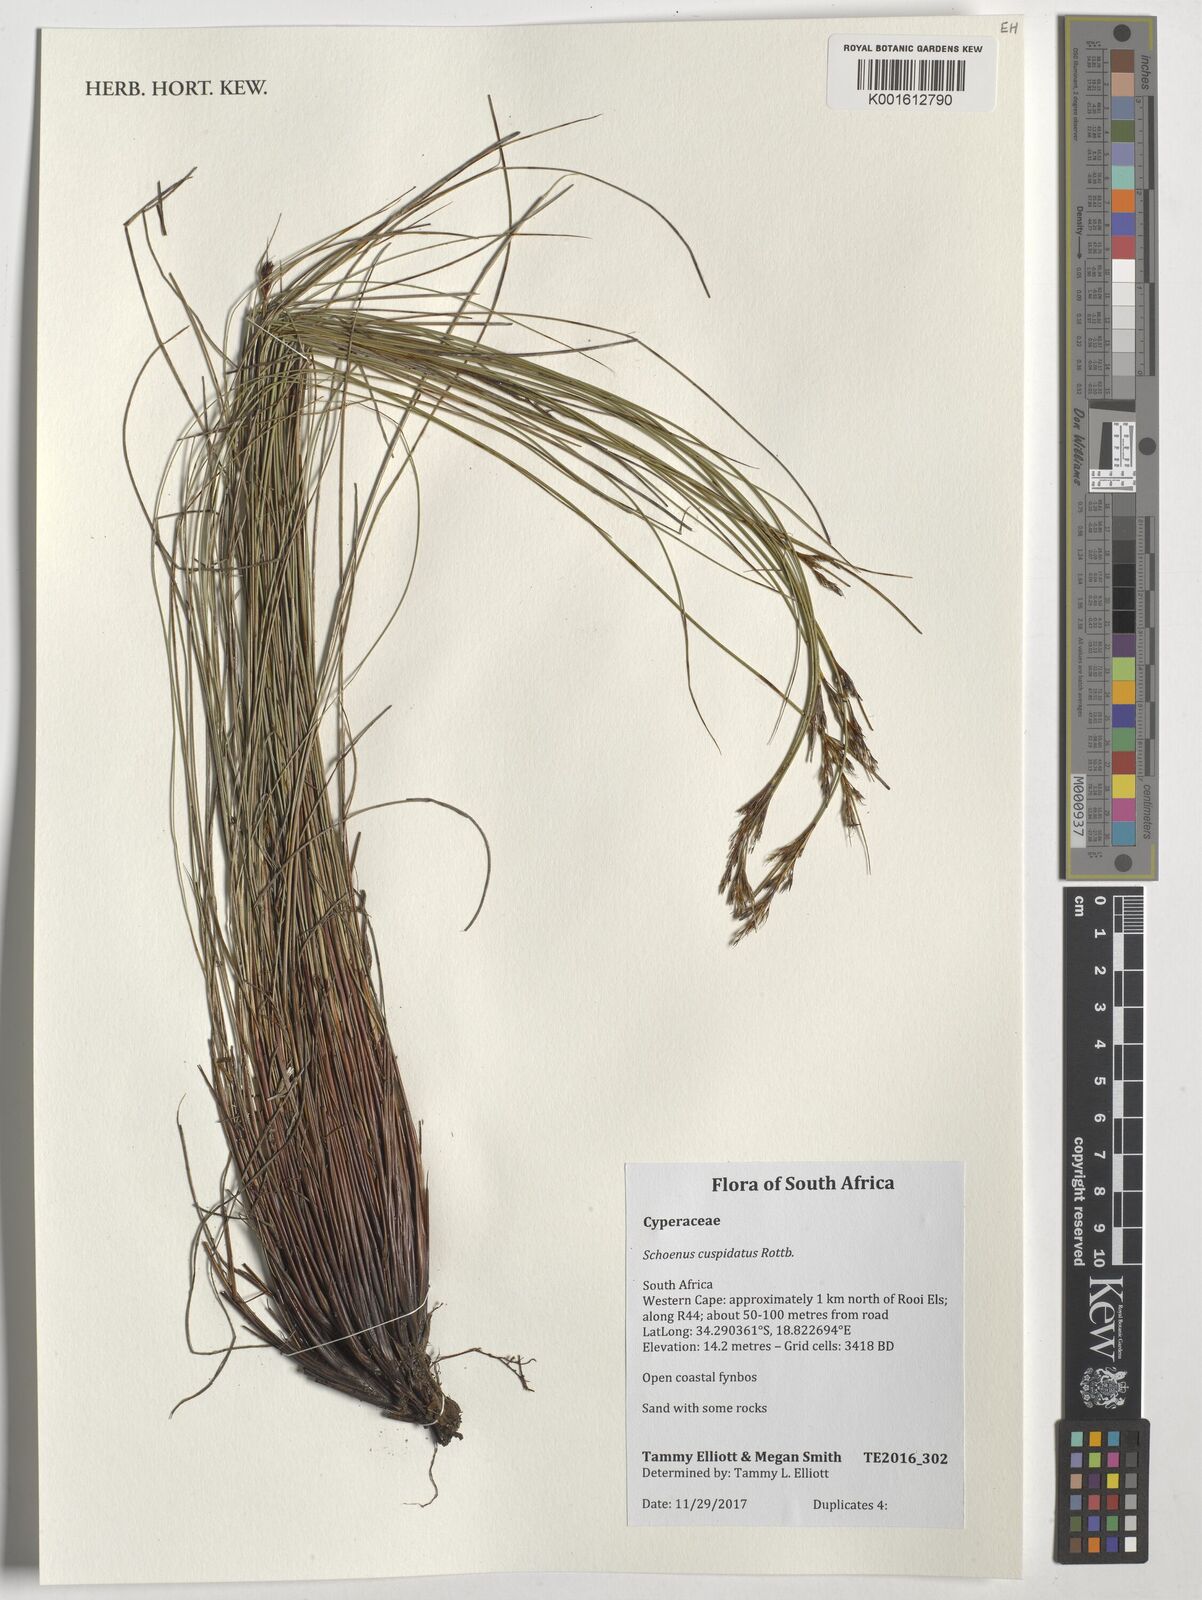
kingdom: Plantae
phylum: Tracheophyta
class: Liliopsida
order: Poales
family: Cyperaceae
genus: Schoenus
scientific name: Schoenus cuspidatus
